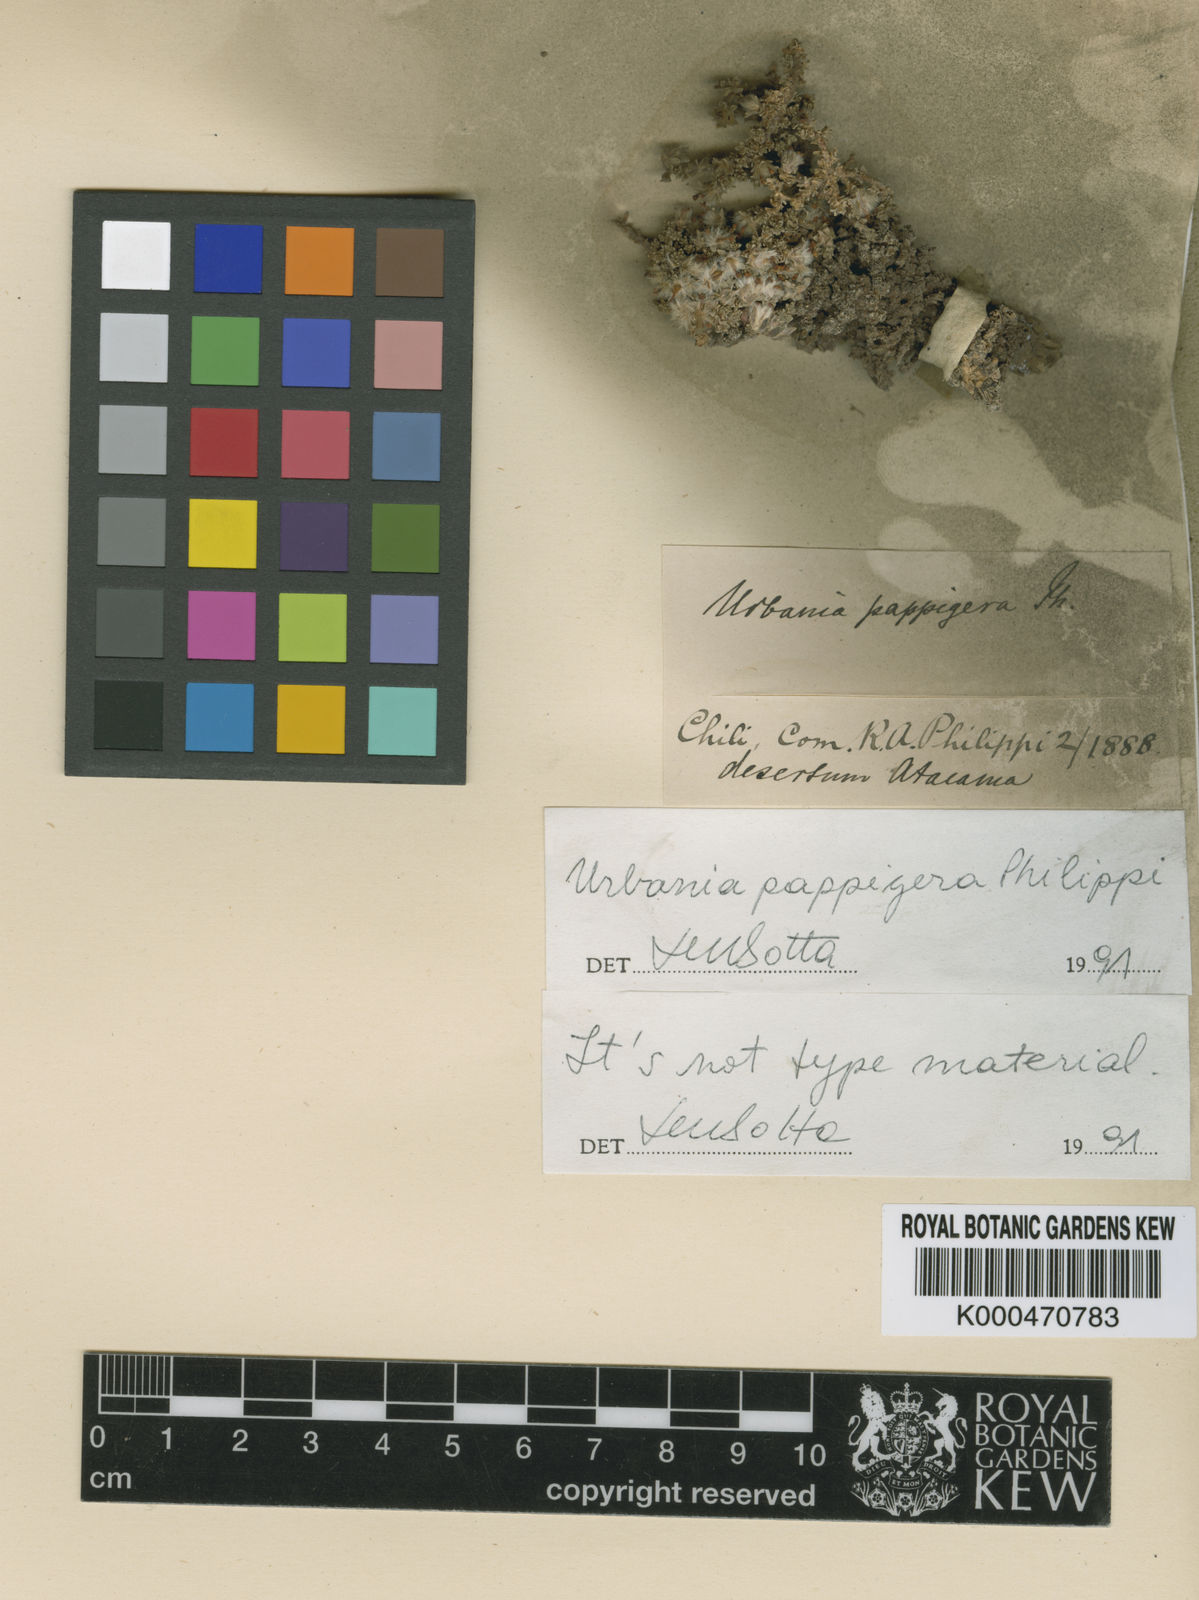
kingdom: Plantae
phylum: Tracheophyta
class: Magnoliopsida
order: Lamiales
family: Verbenaceae
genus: Junellia
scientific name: Junellia pappigera
